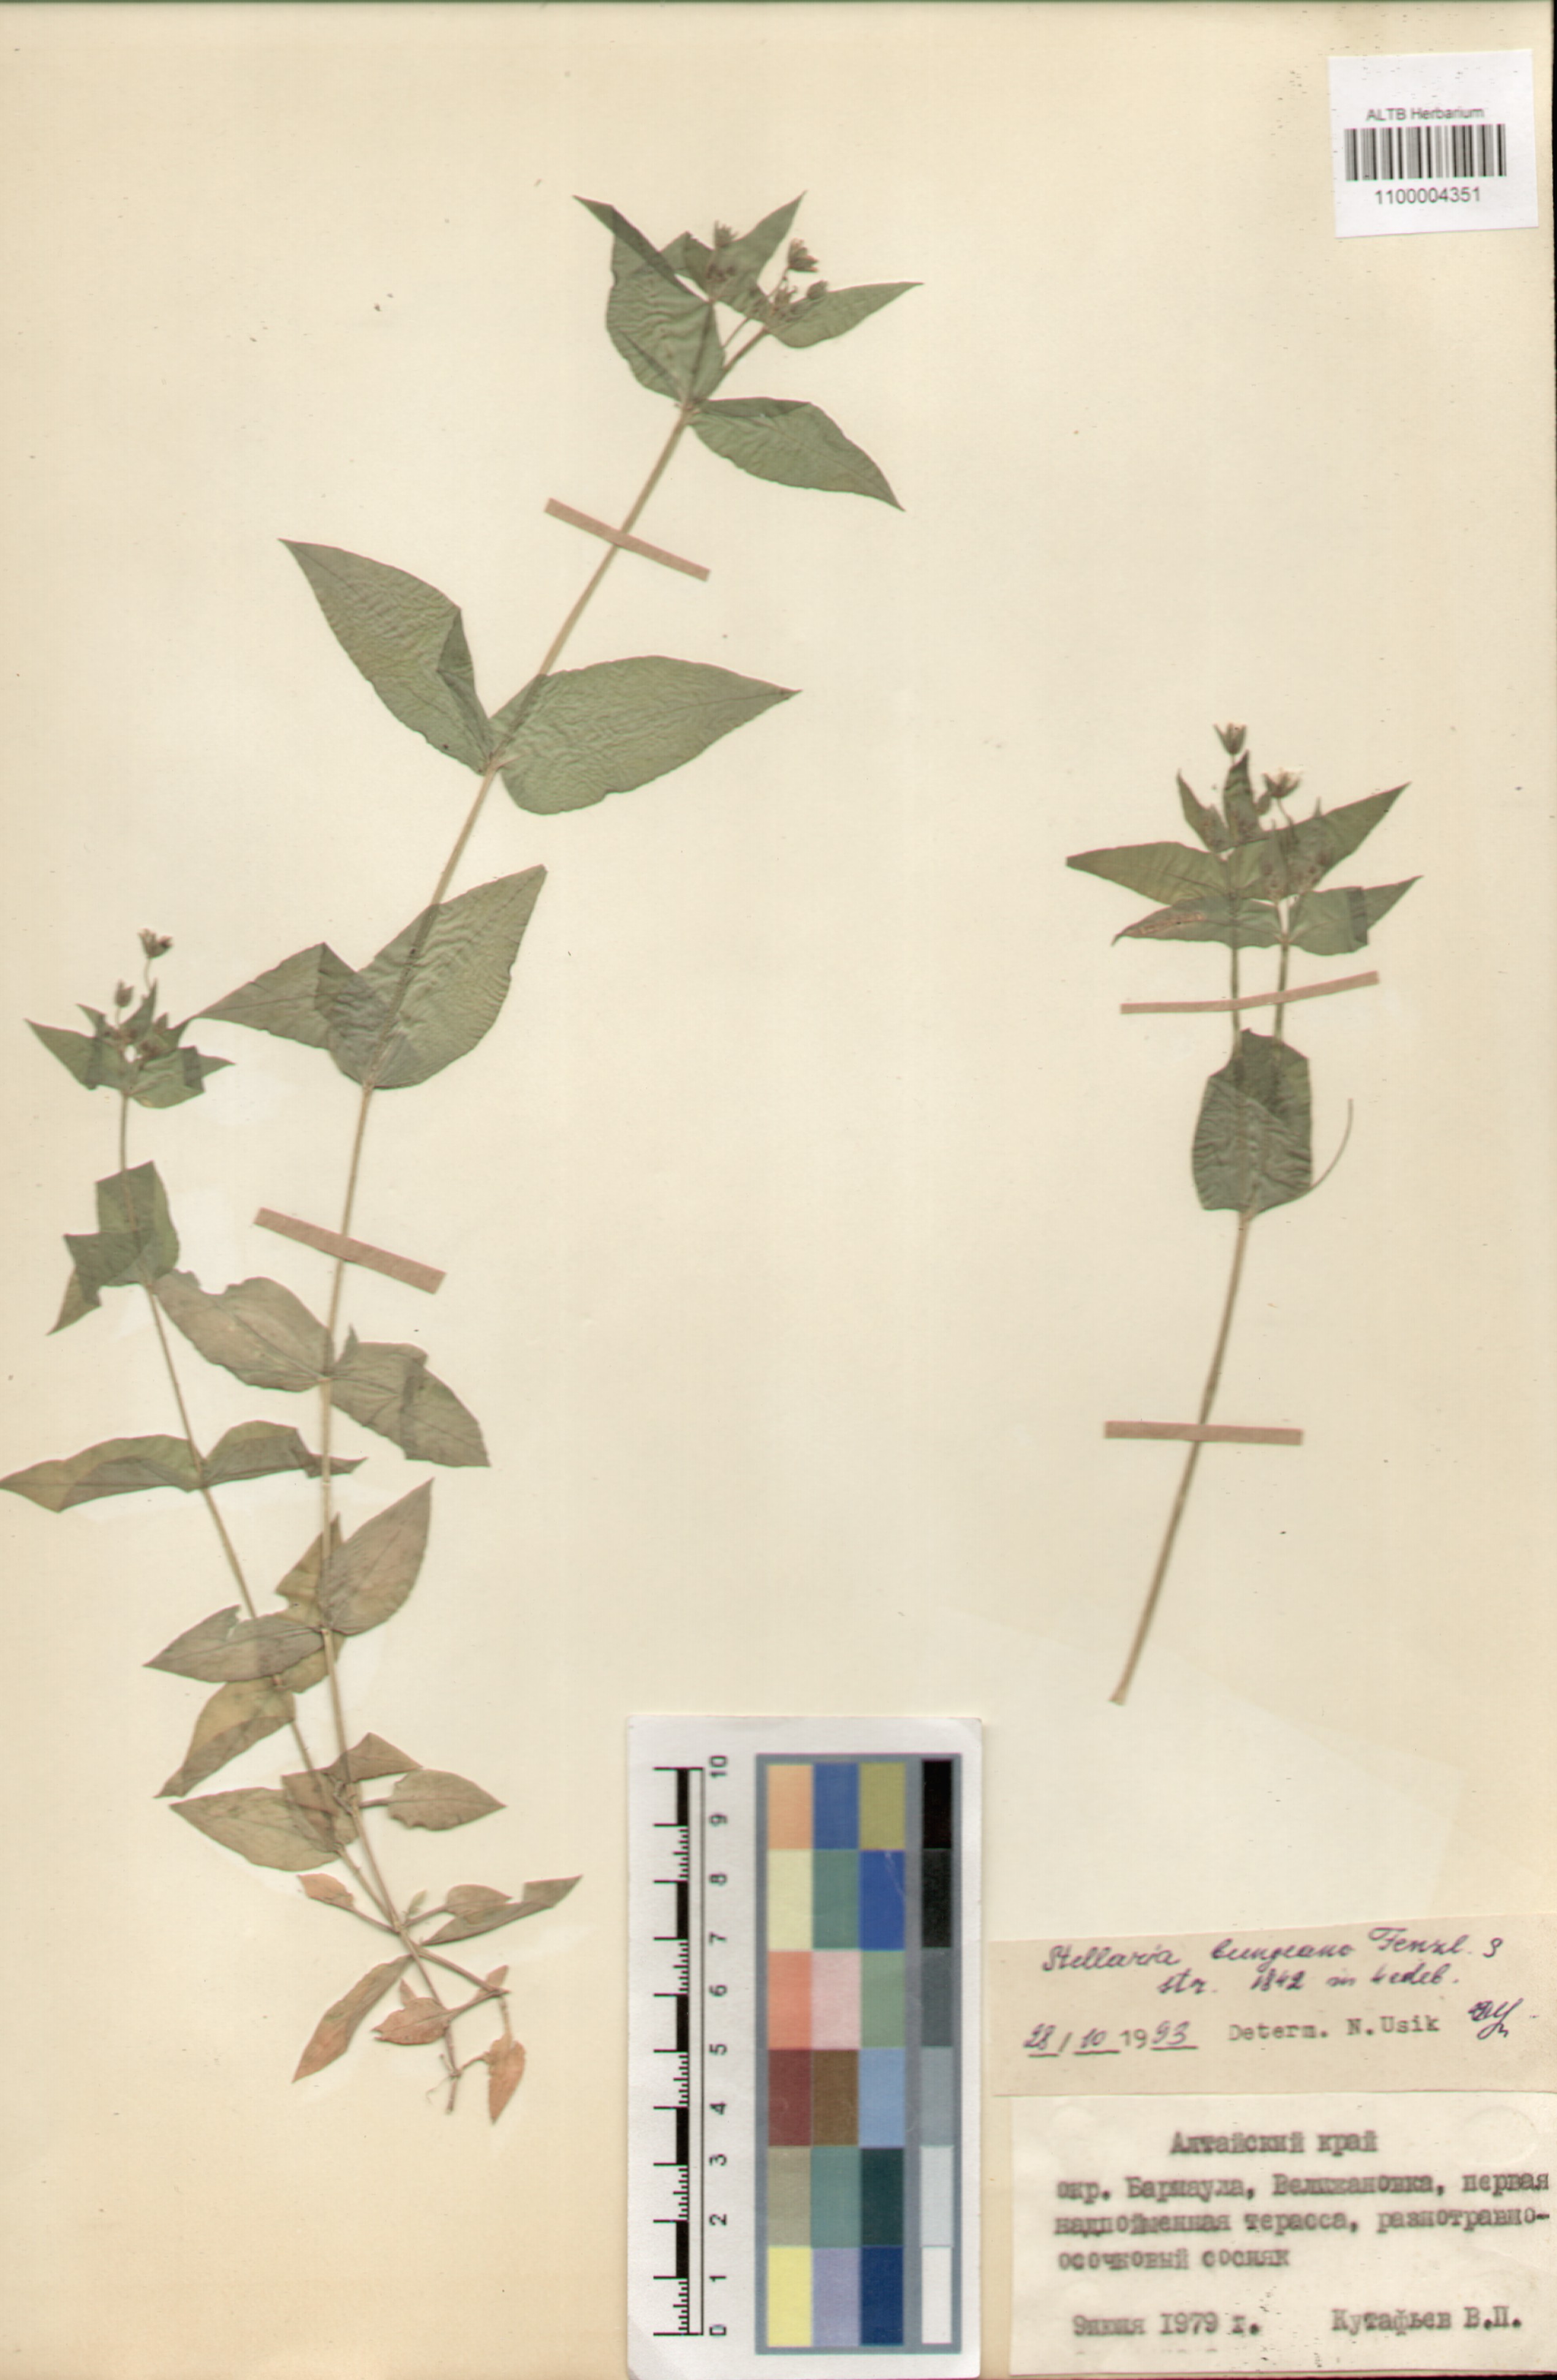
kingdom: Plantae
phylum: Tracheophyta
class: Magnoliopsida
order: Caryophyllales
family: Caryophyllaceae
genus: Stellaria
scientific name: Stellaria bungeana
